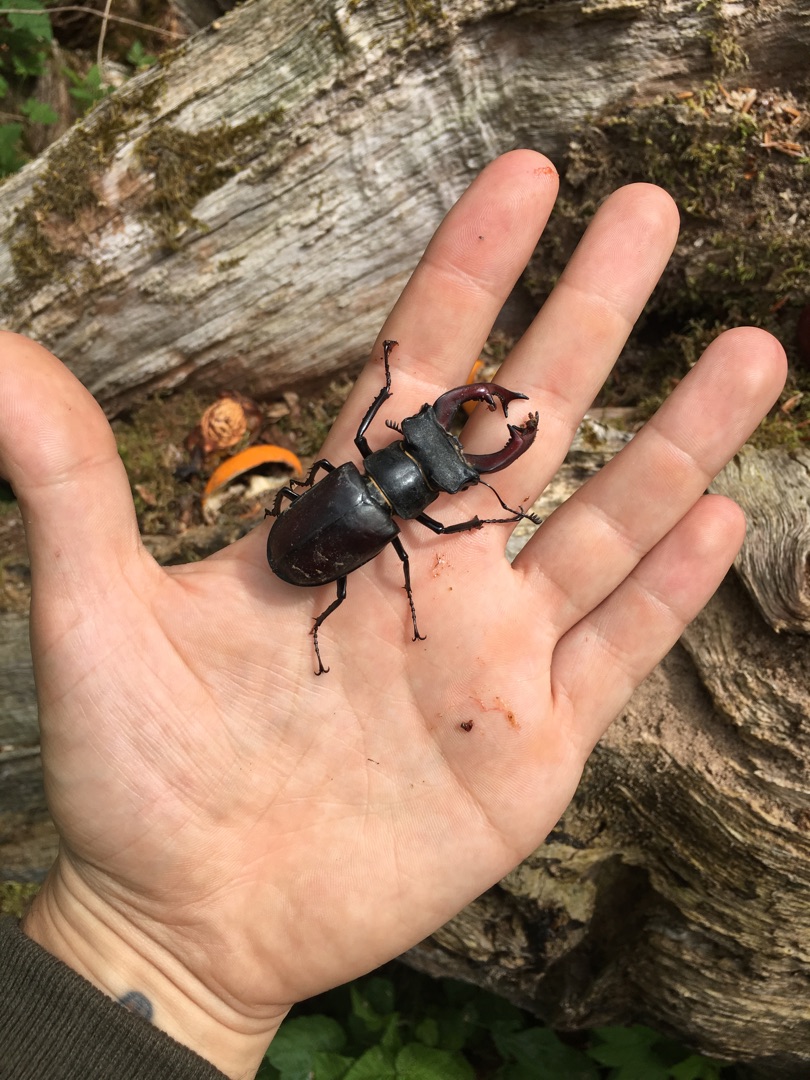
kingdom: Animalia
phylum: Arthropoda
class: Insecta
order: Coleoptera
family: Lucanidae
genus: Lucanus
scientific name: Lucanus cervus
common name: Eghjort
